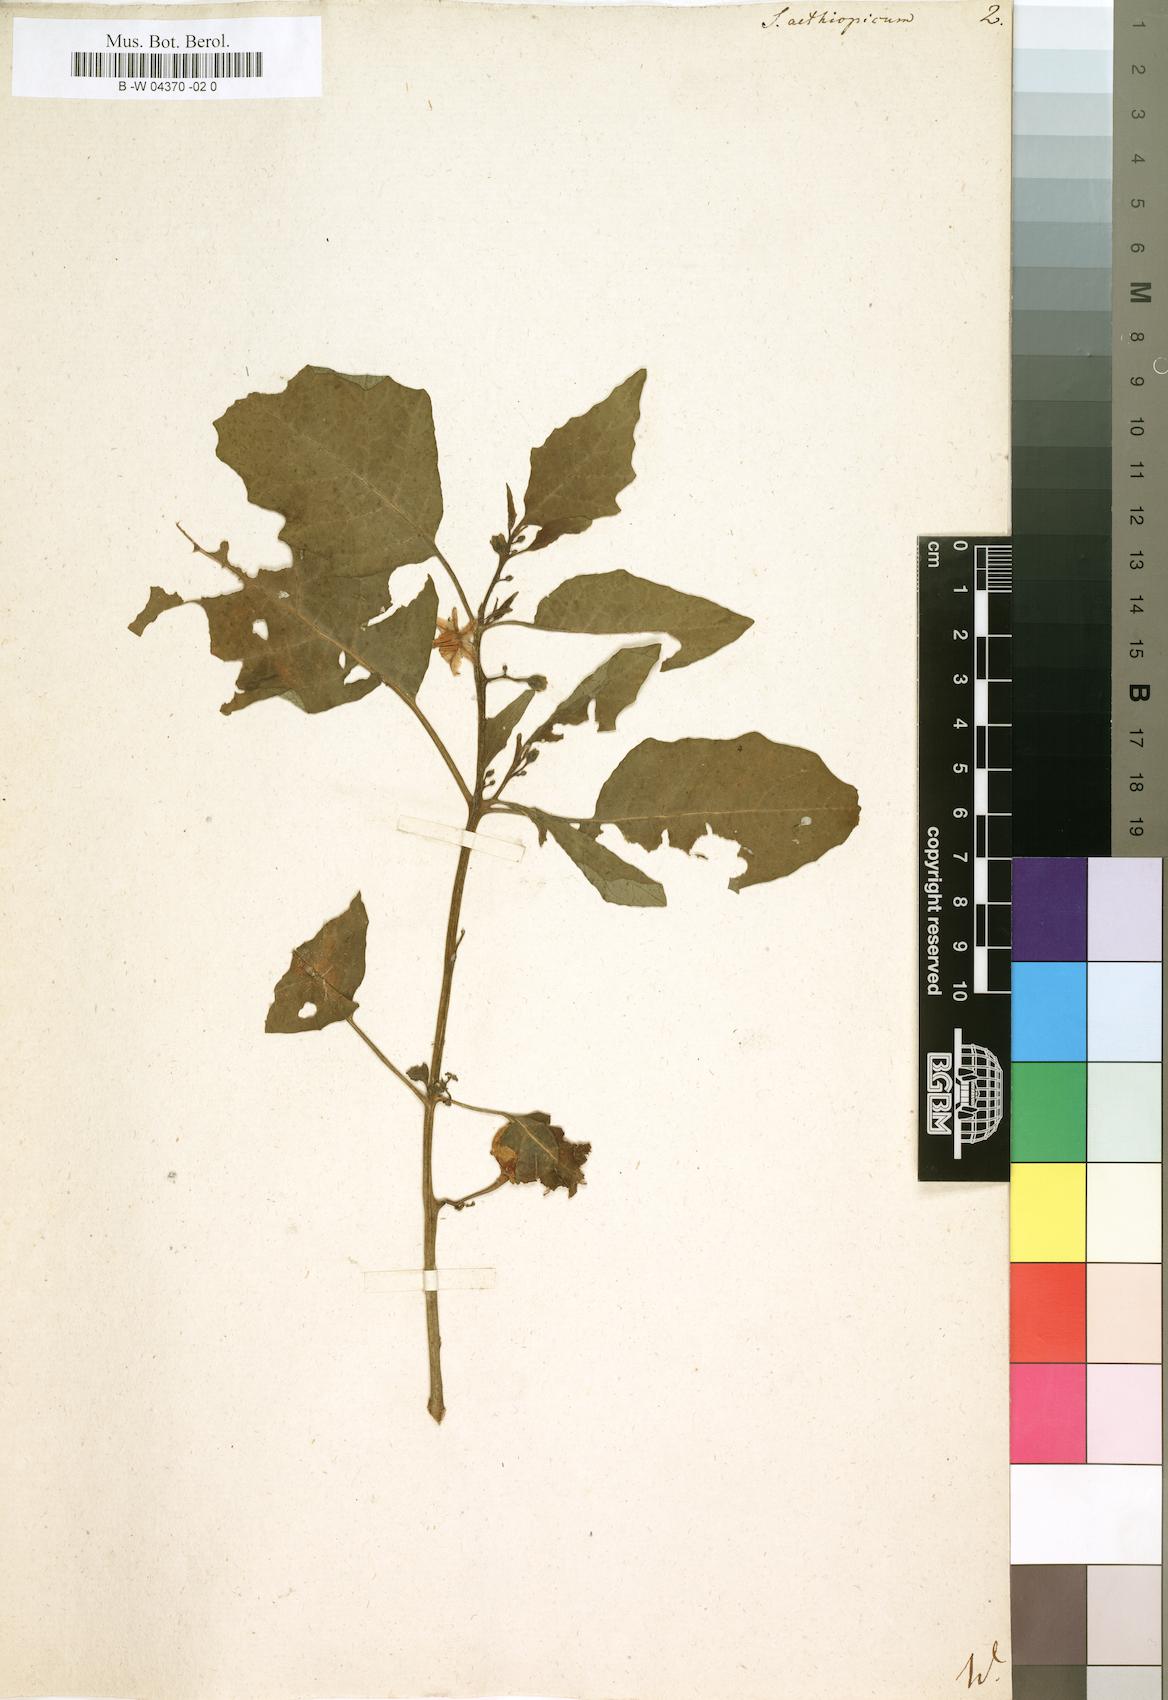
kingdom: Plantae
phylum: Tracheophyta
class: Magnoliopsida
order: Solanales
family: Solanaceae
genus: Solanum
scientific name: Solanum aethiopicum
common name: Gilo
